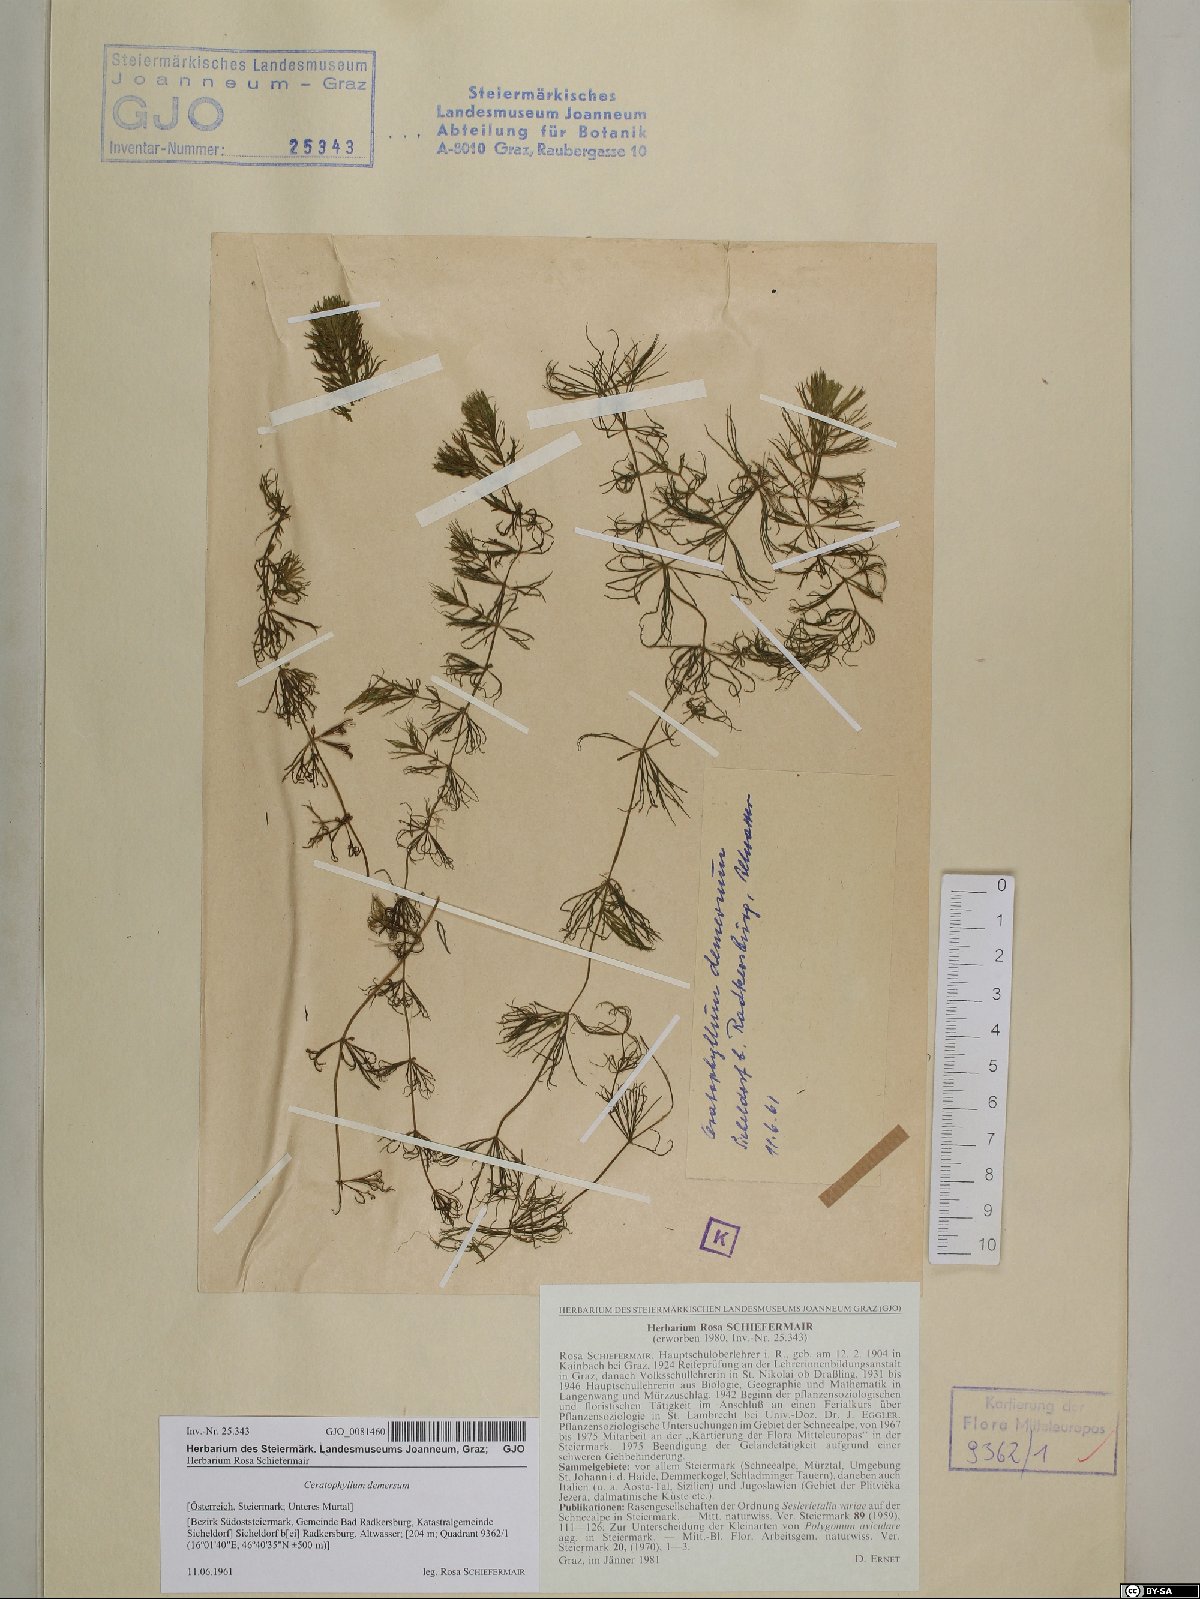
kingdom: Plantae
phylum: Tracheophyta
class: Magnoliopsida
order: Ceratophyllales
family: Ceratophyllaceae
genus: Ceratophyllum
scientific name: Ceratophyllum demersum
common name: Rigid hornwort
